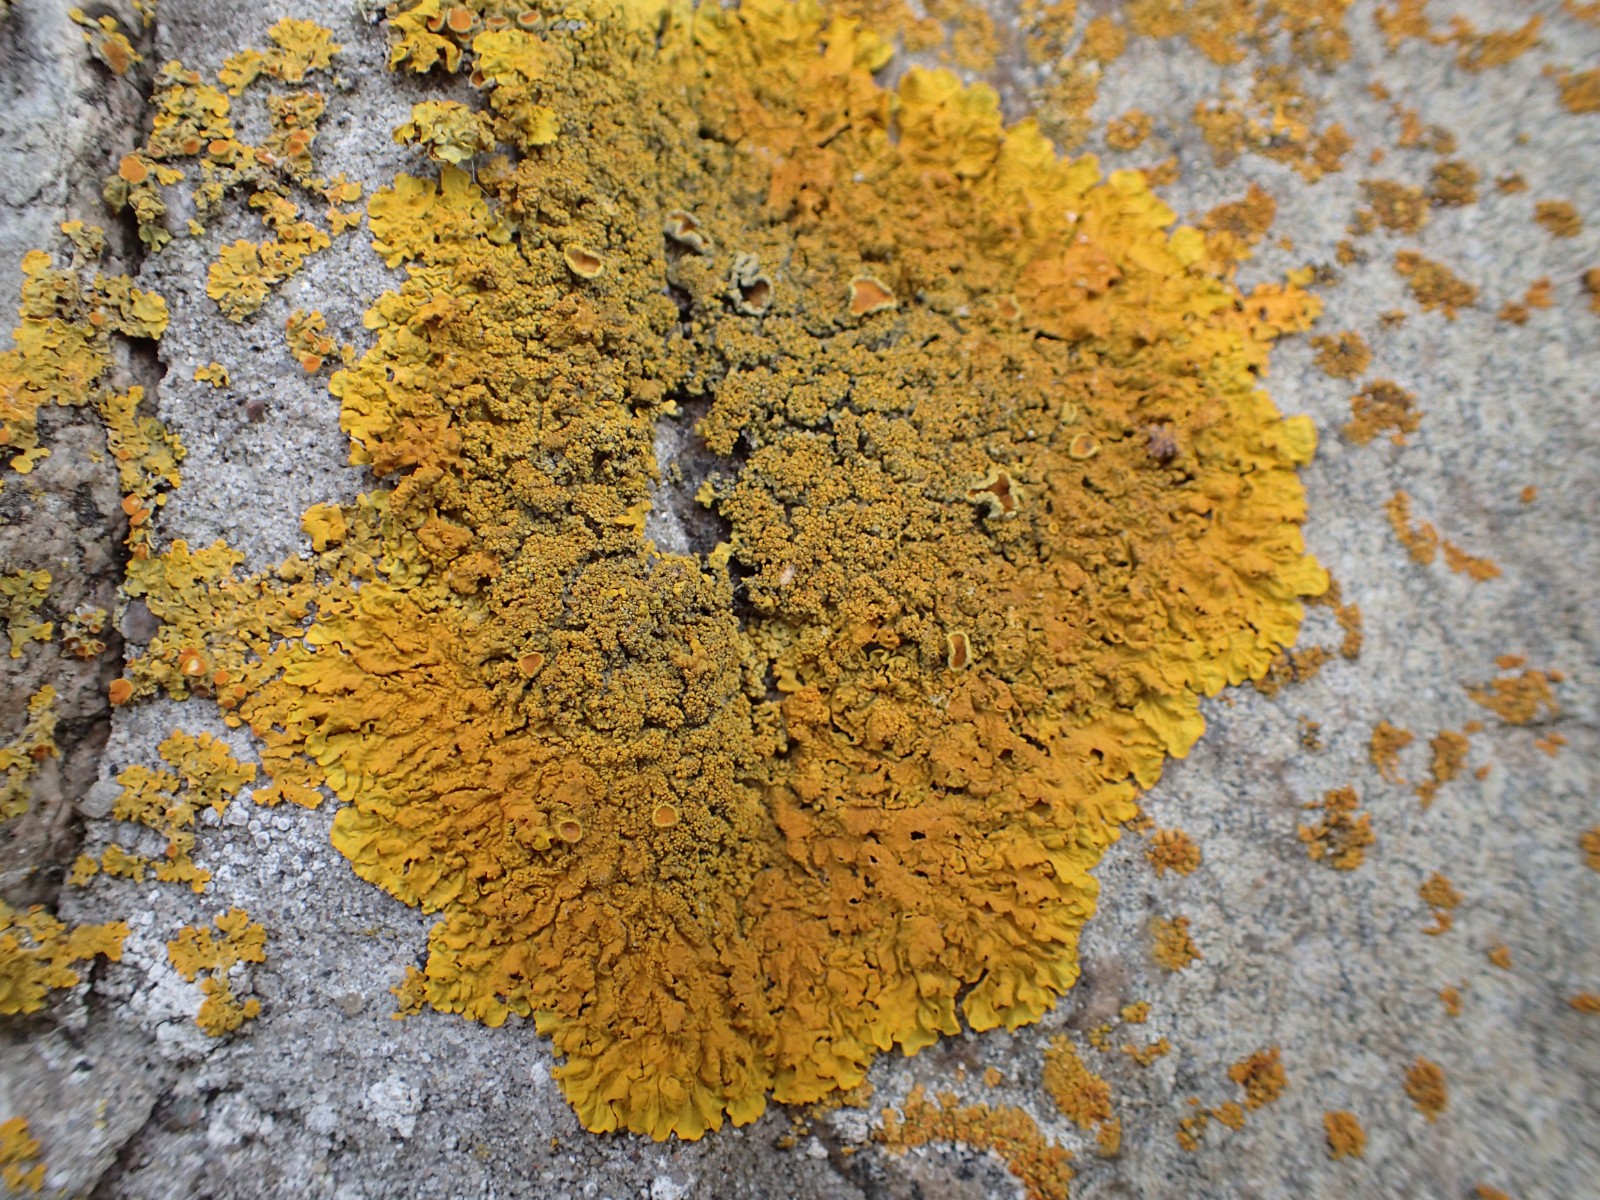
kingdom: Fungi
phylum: Ascomycota
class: Lecanoromycetes
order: Teloschistales
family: Teloschistaceae
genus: Xanthoria
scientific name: Xanthoria calcicola
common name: vortet væggelav
